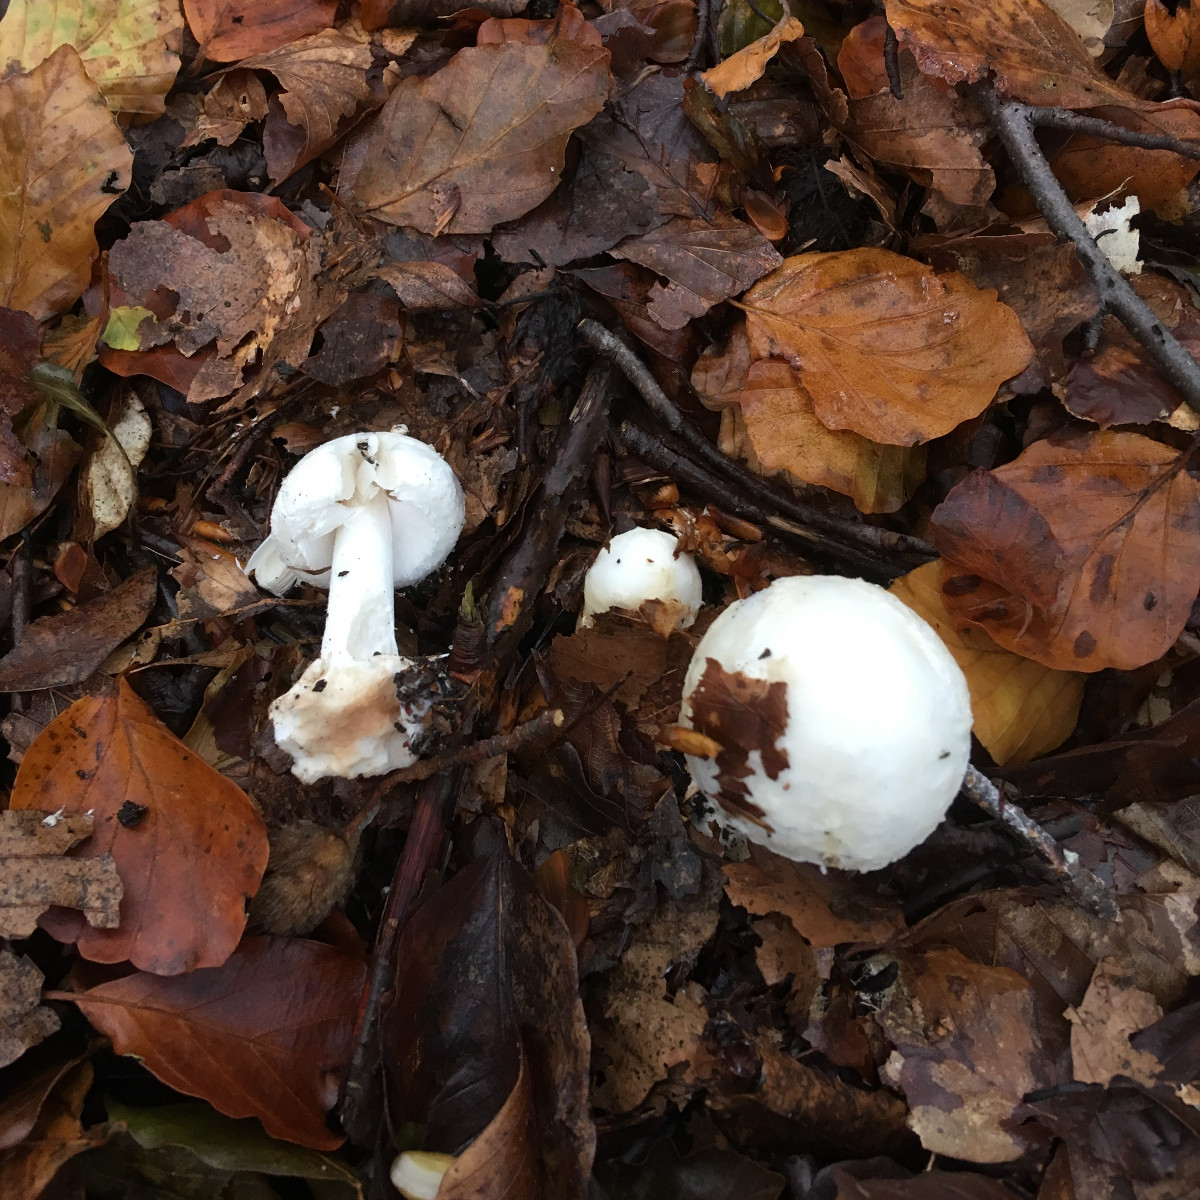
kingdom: Fungi
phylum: Basidiomycota
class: Agaricomycetes
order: Agaricales
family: Amanitaceae
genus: Amanita
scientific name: Amanita citrina
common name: False death-cap
